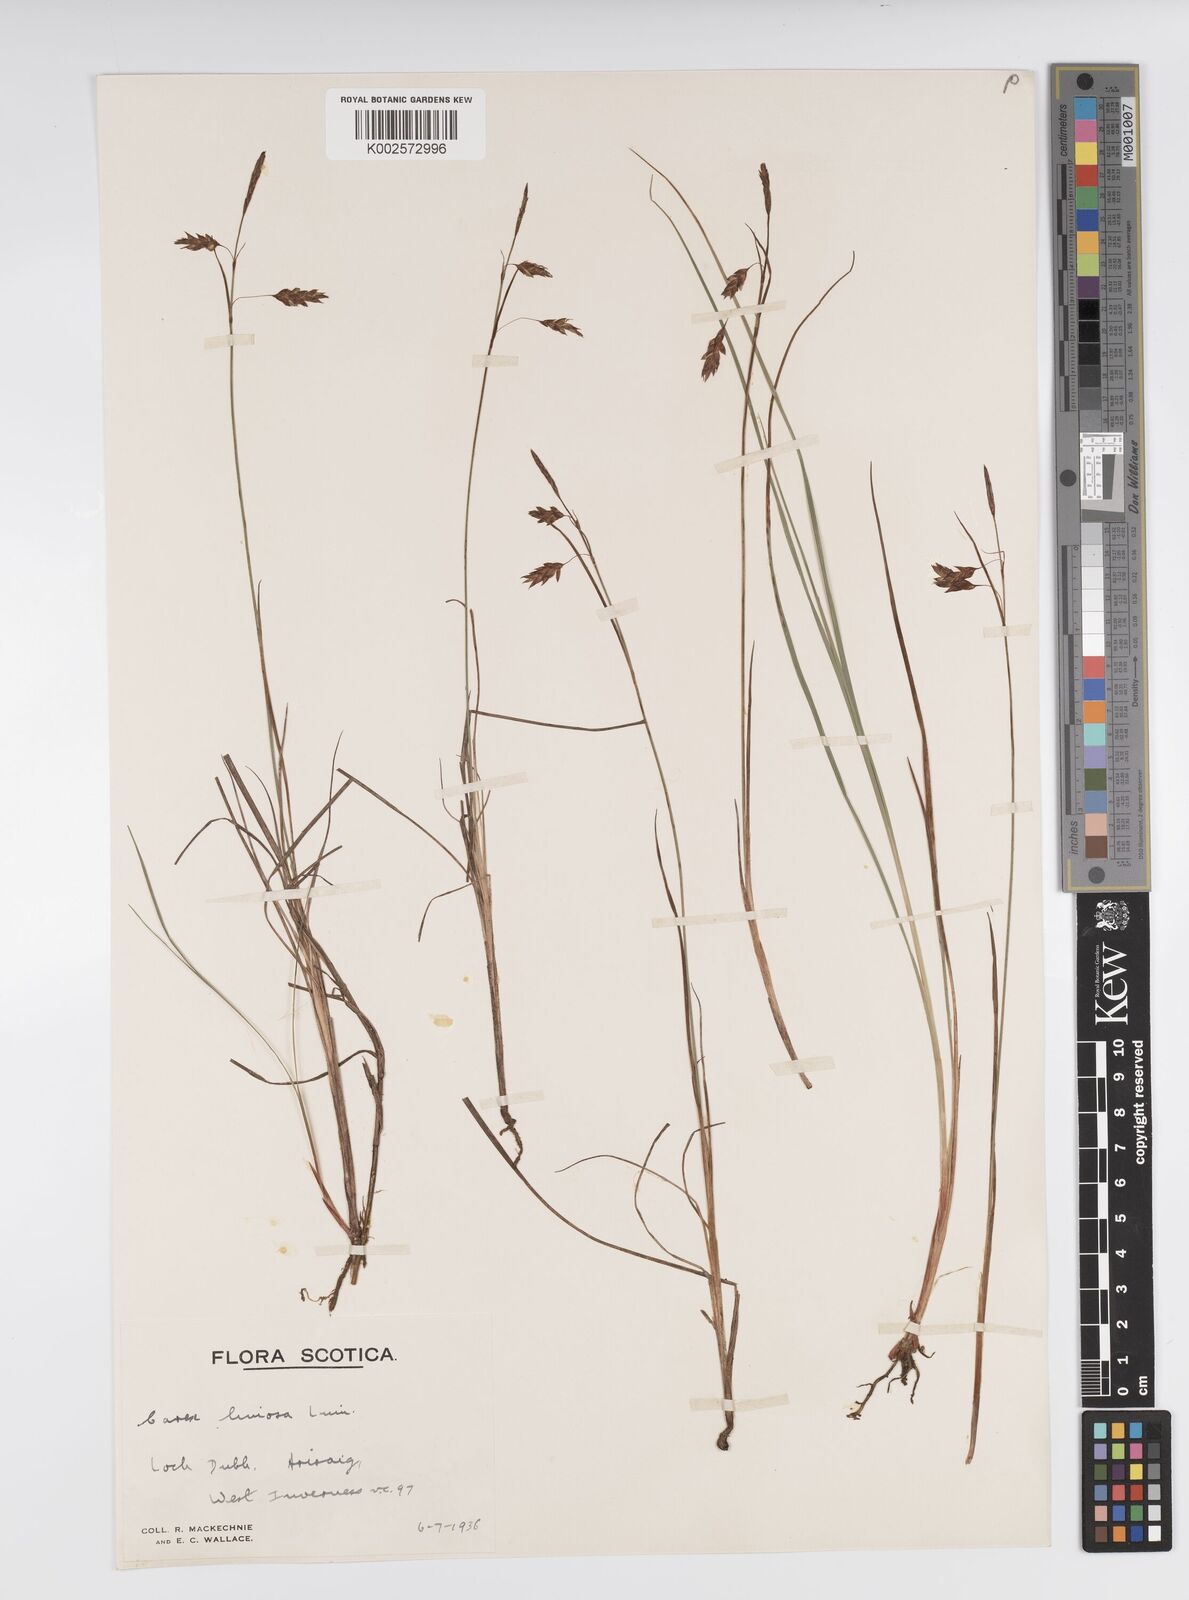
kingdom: Plantae
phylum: Tracheophyta
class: Liliopsida
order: Poales
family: Cyperaceae
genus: Carex
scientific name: Carex limosa
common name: Bog sedge
